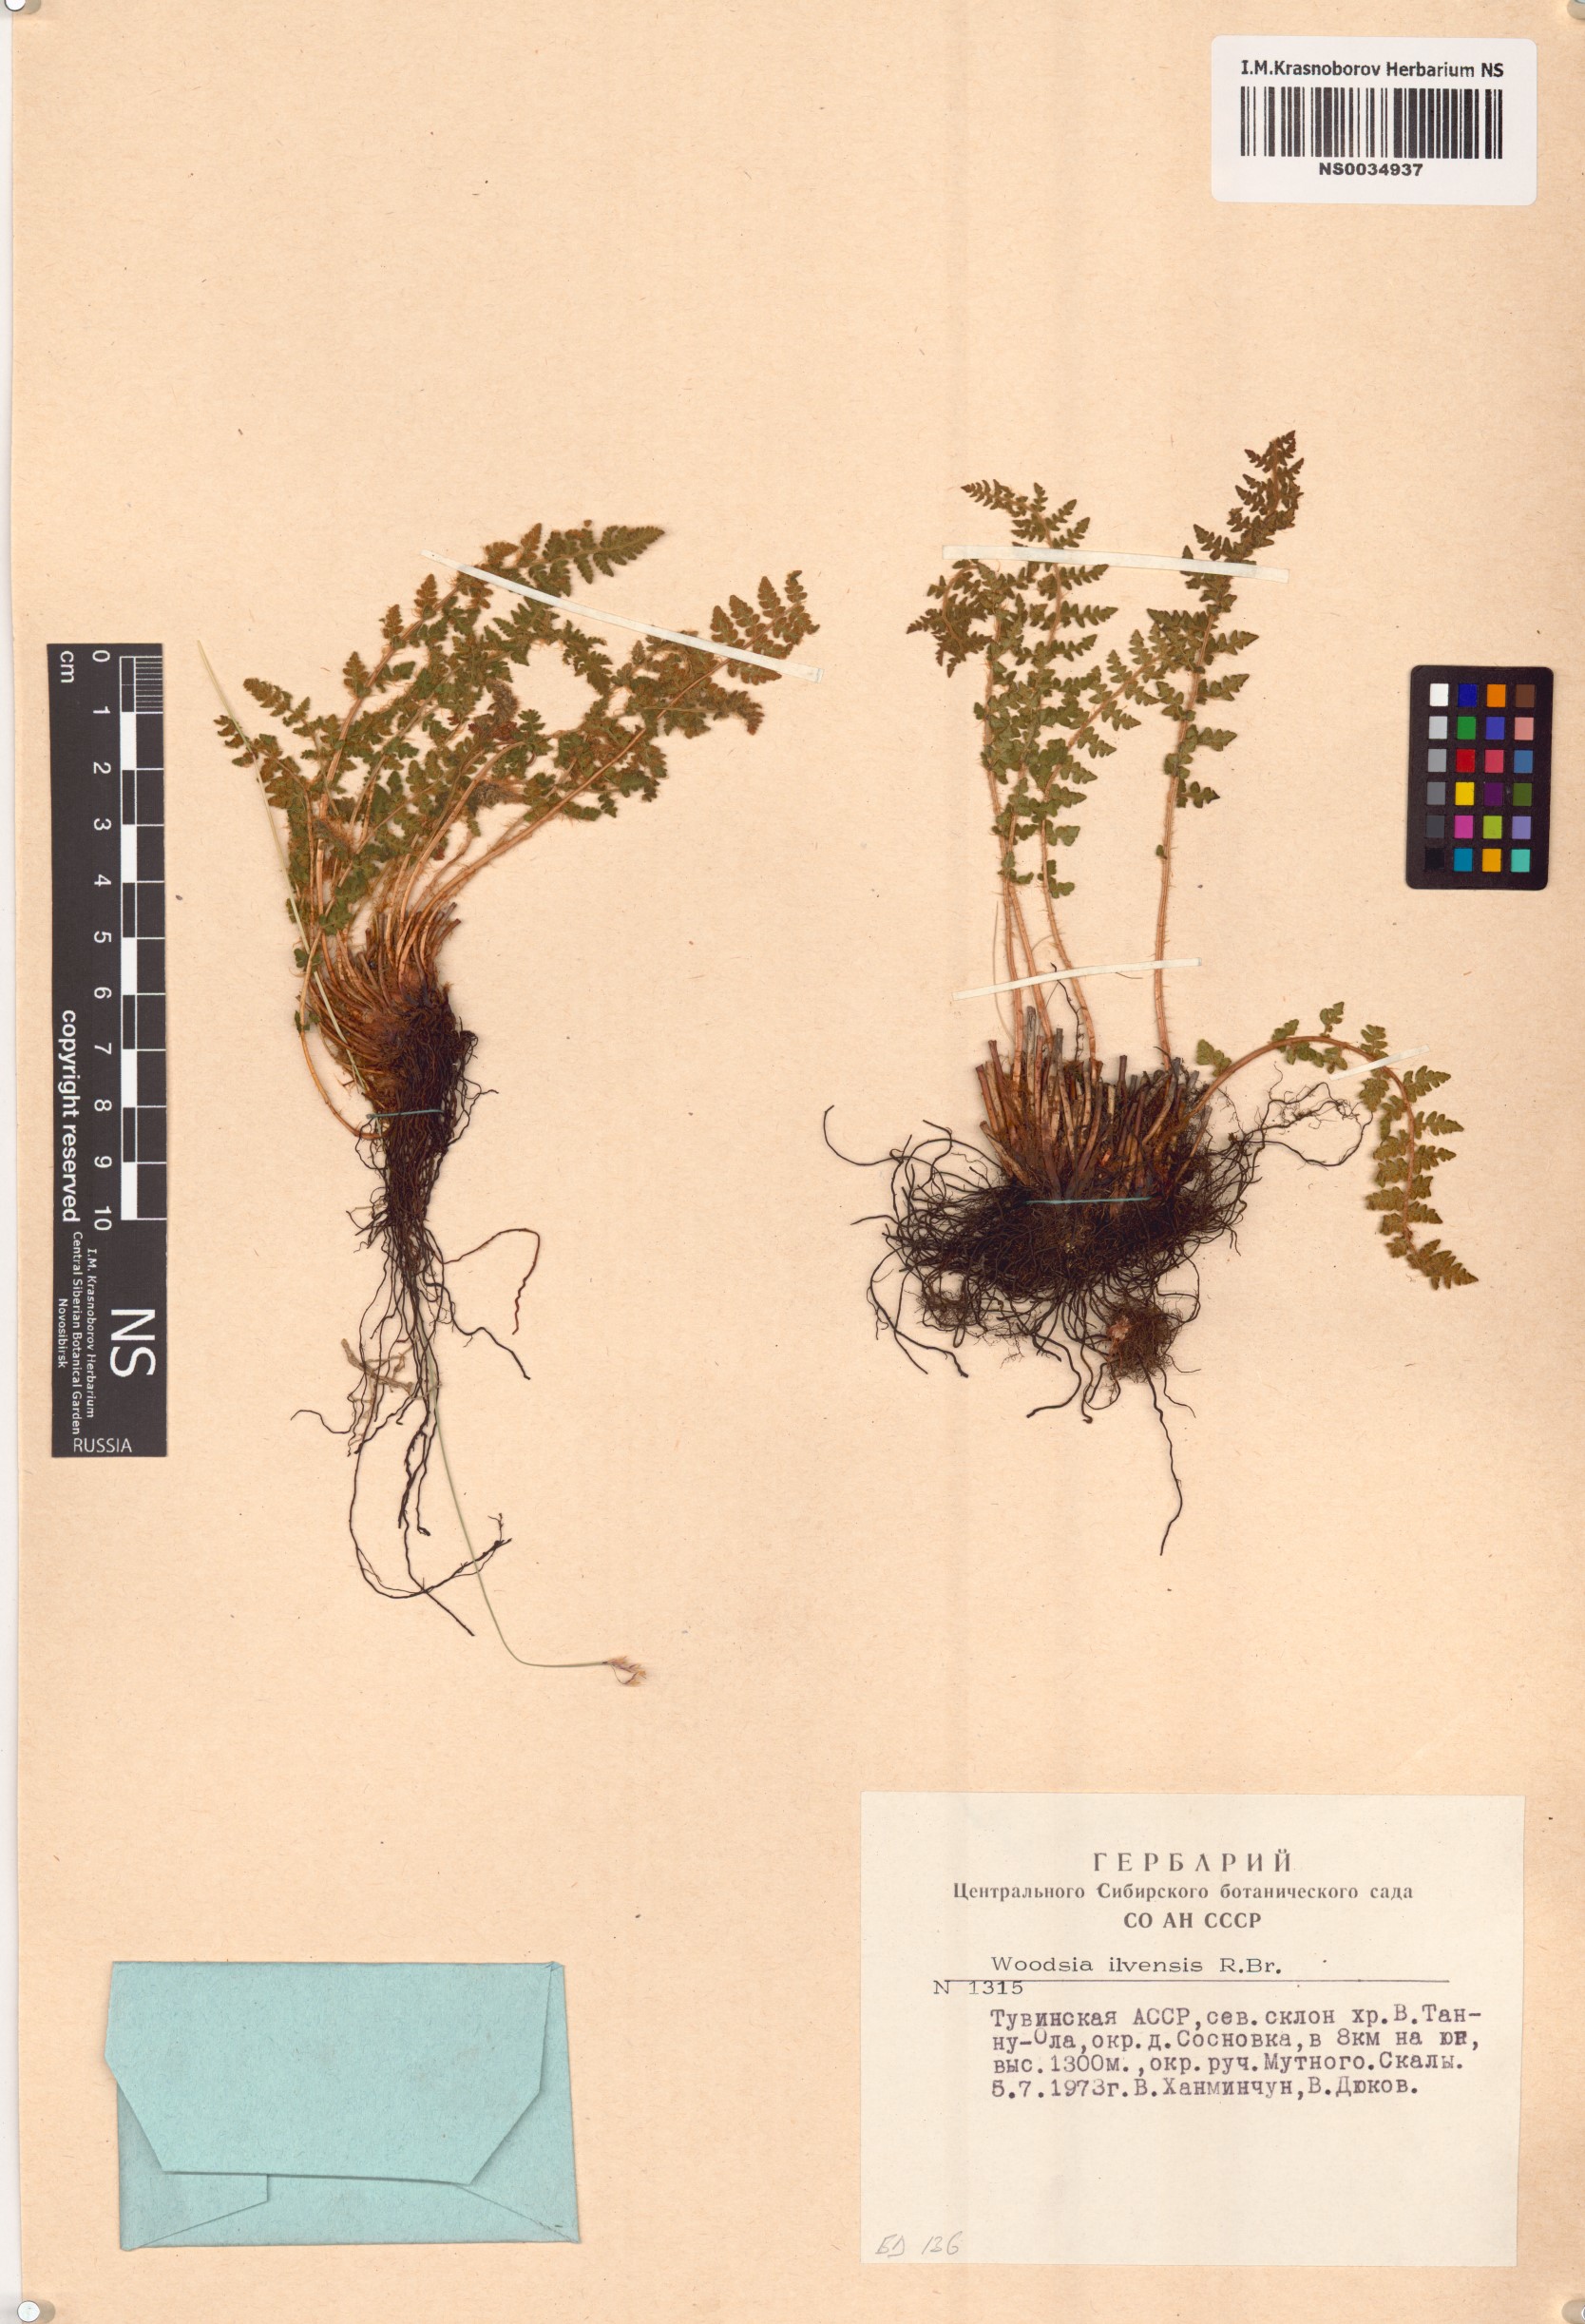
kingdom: Plantae
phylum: Tracheophyta
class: Polypodiopsida
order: Polypodiales
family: Woodsiaceae
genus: Woodsia
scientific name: Woodsia ilvensis
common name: Fragrant woodsia
